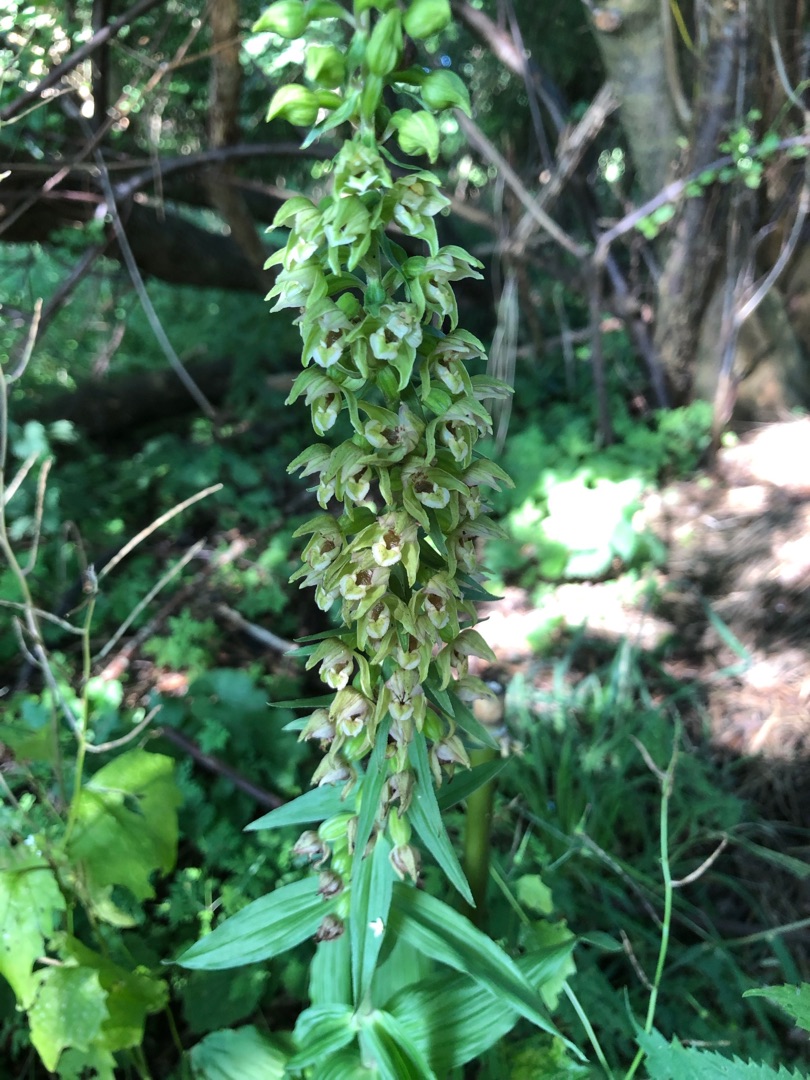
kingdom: Plantae
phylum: Tracheophyta
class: Liliopsida
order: Asparagales
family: Orchidaceae
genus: Epipactis
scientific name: Epipactis helleborine
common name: Skov-hullæbe
